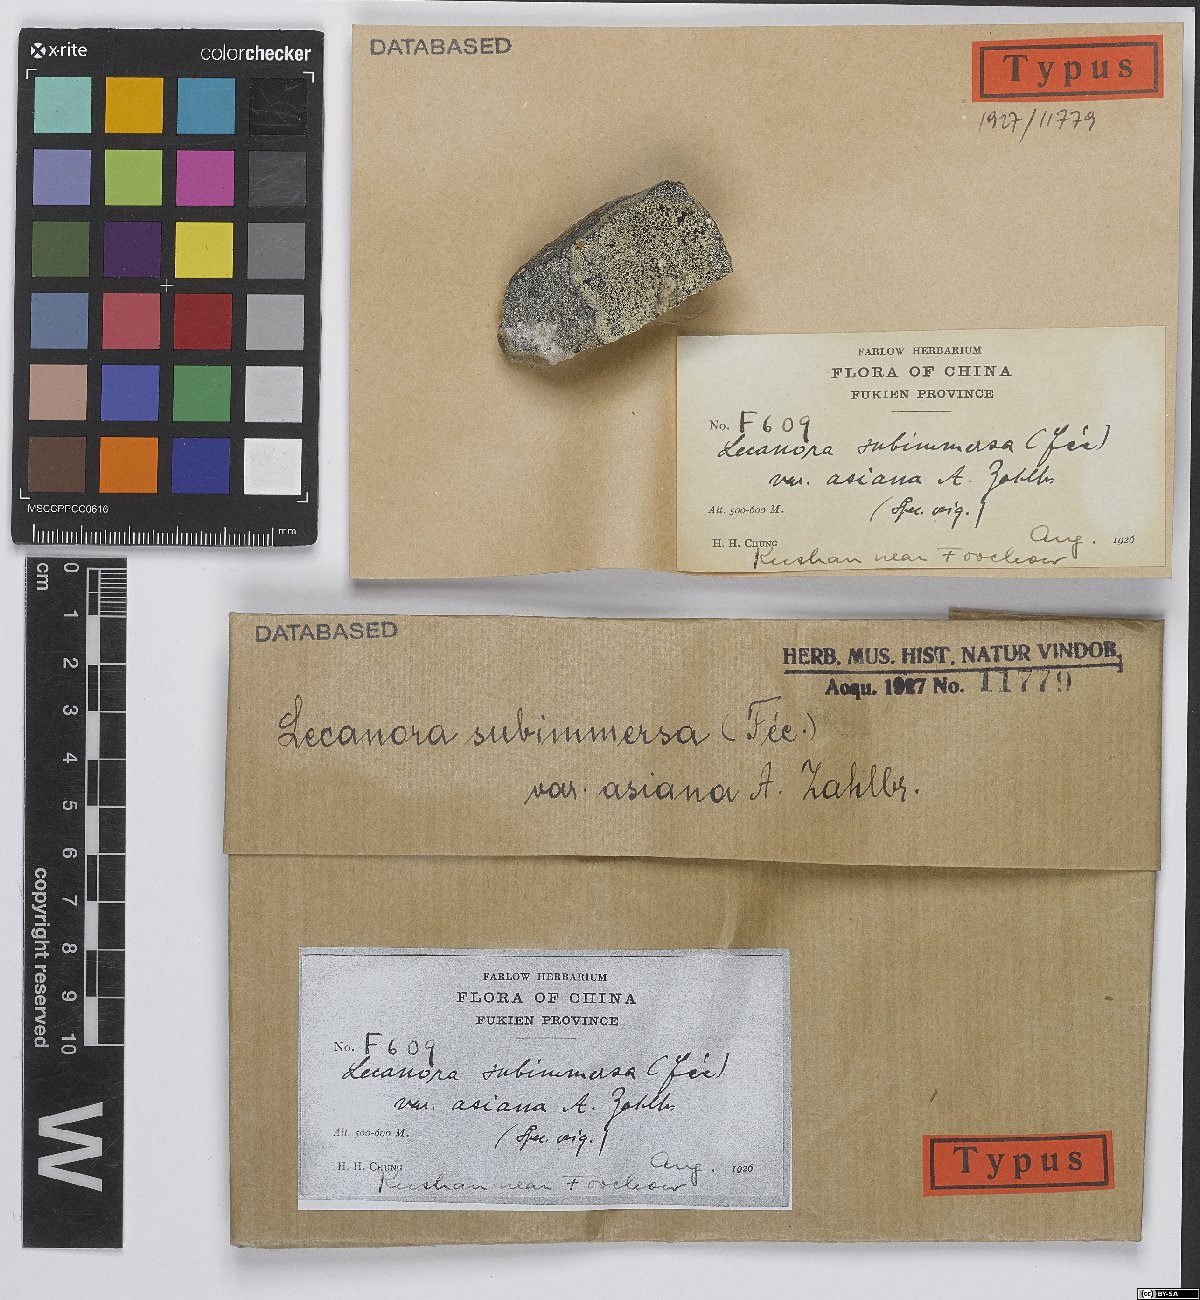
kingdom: Fungi
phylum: Ascomycota
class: Lecanoromycetes
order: Lecanorales
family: Lecanoraceae
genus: Lecanora
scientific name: Lecanora subimmersa
